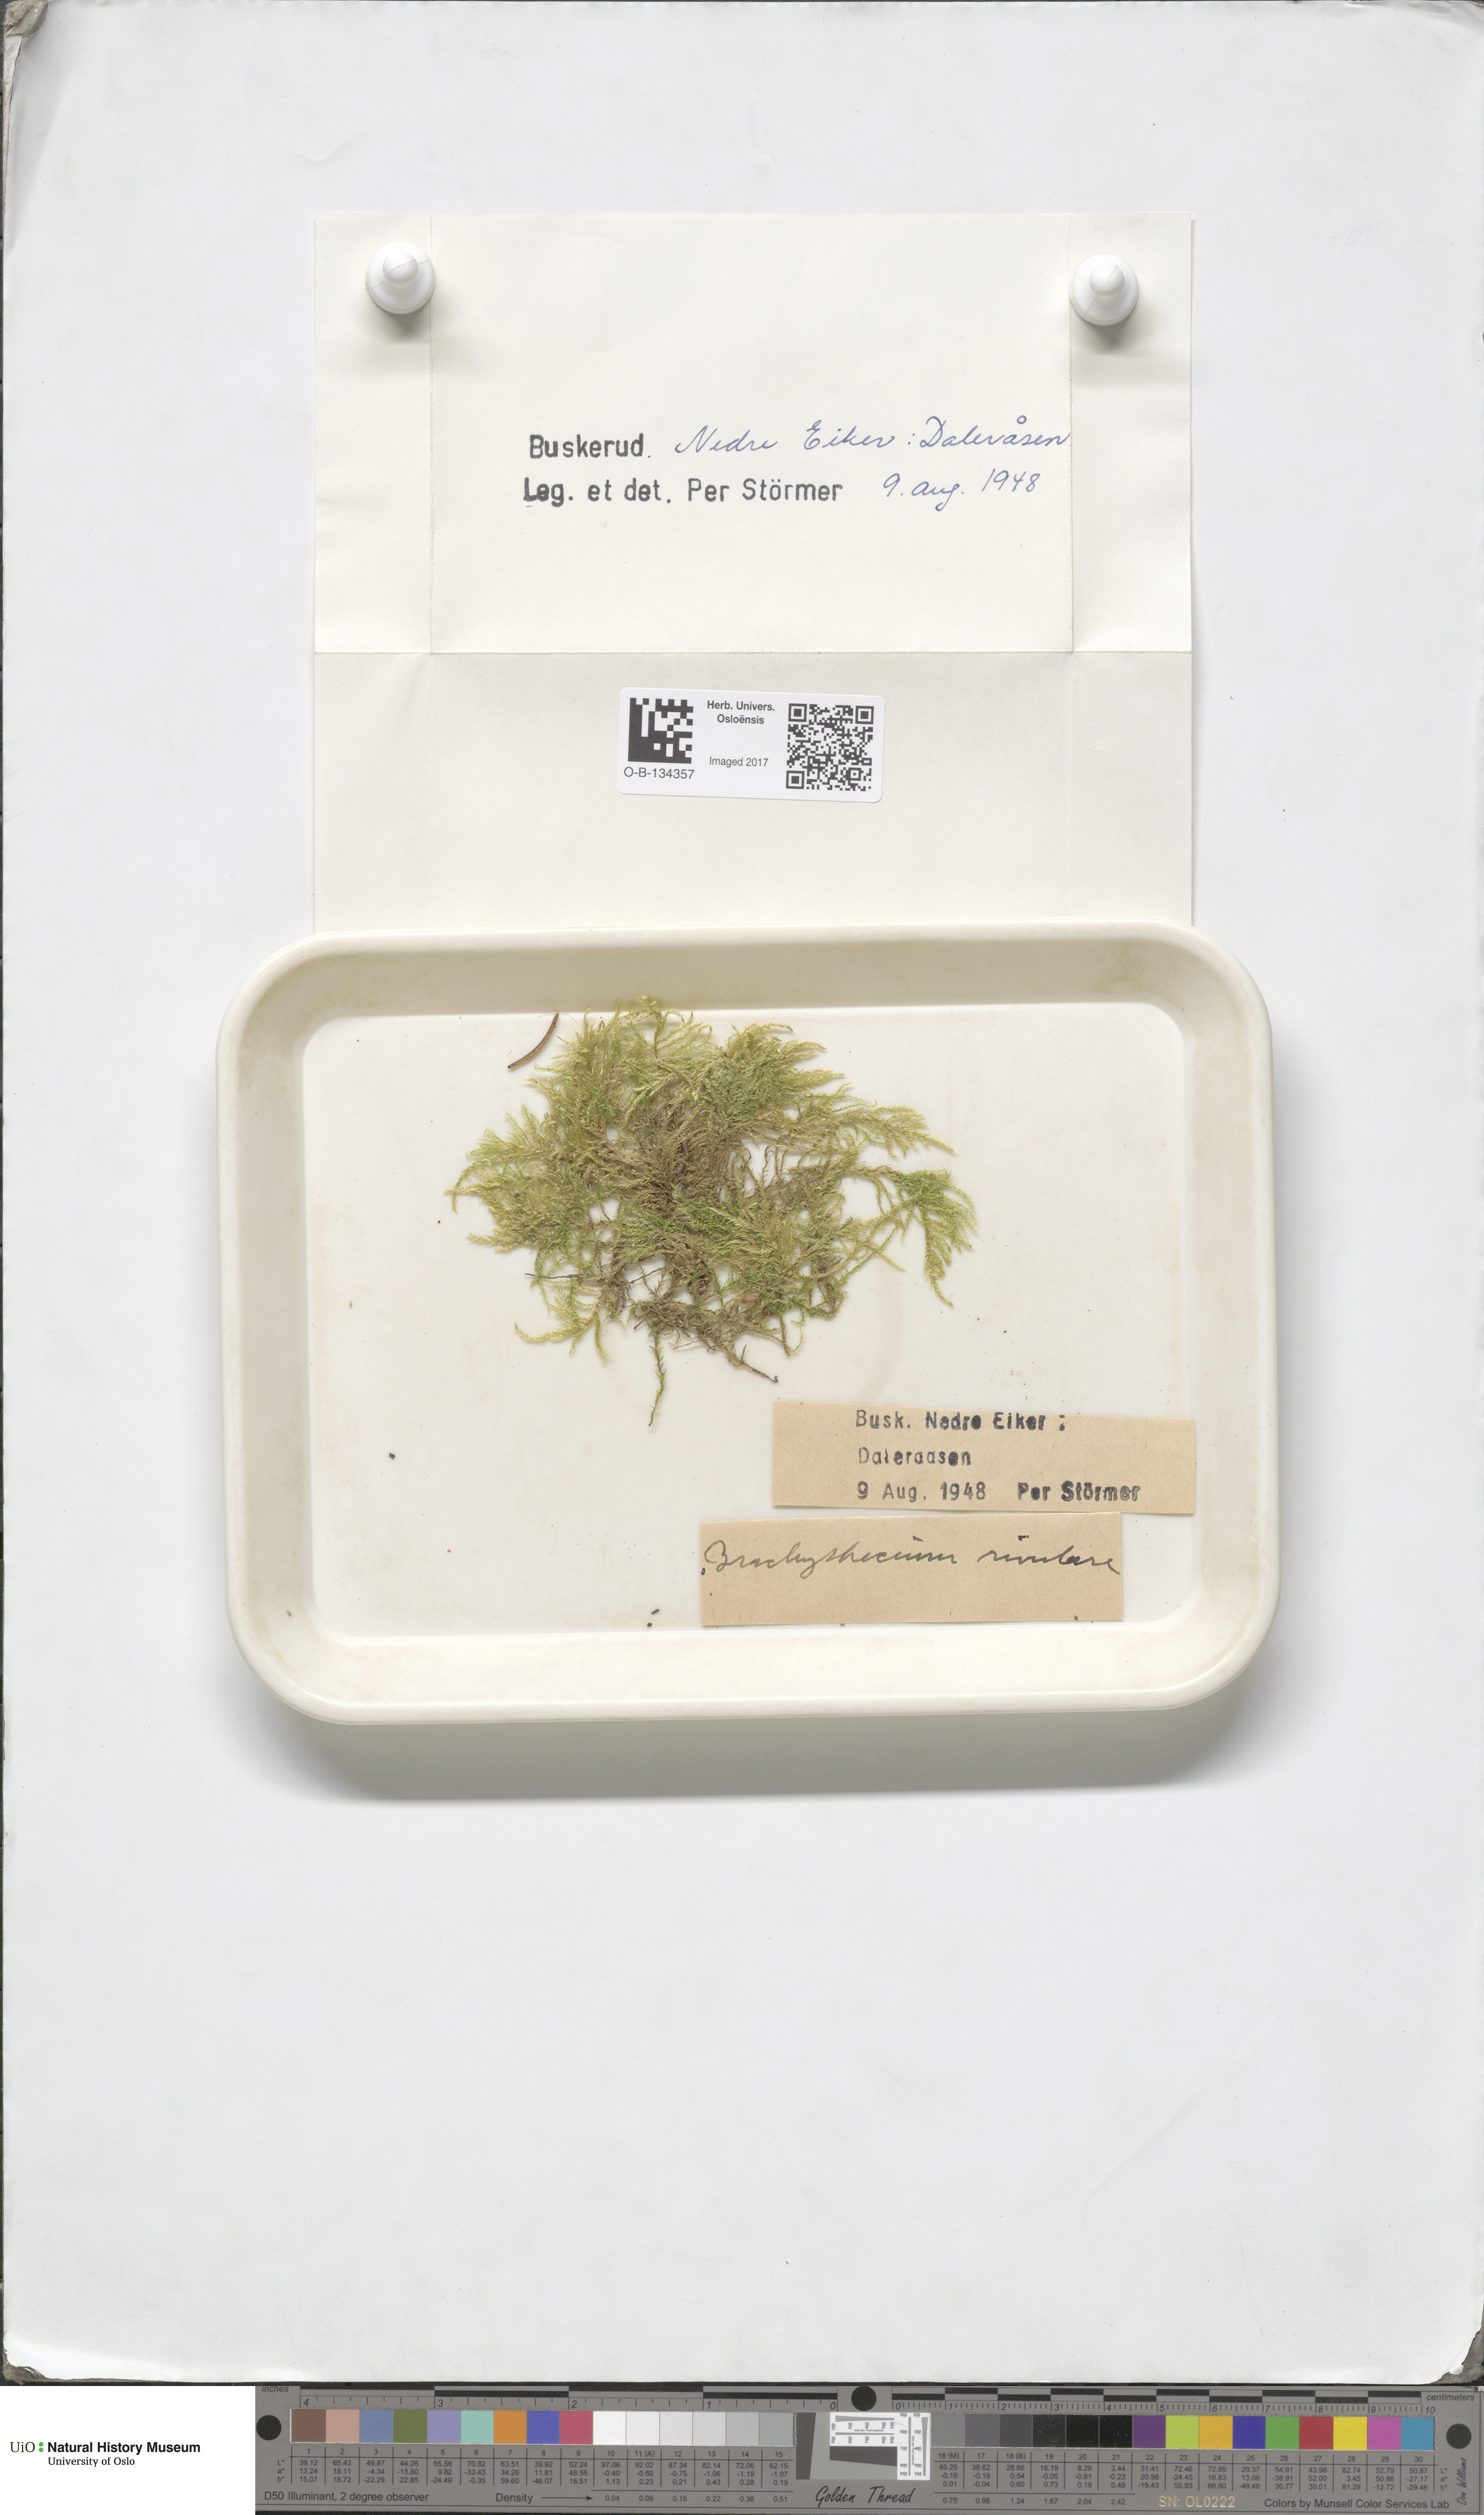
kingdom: Plantae
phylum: Bryophyta
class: Bryopsida
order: Hypnales
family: Brachytheciaceae
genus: Brachythecium
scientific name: Brachythecium rivulare
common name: River ragged moss
